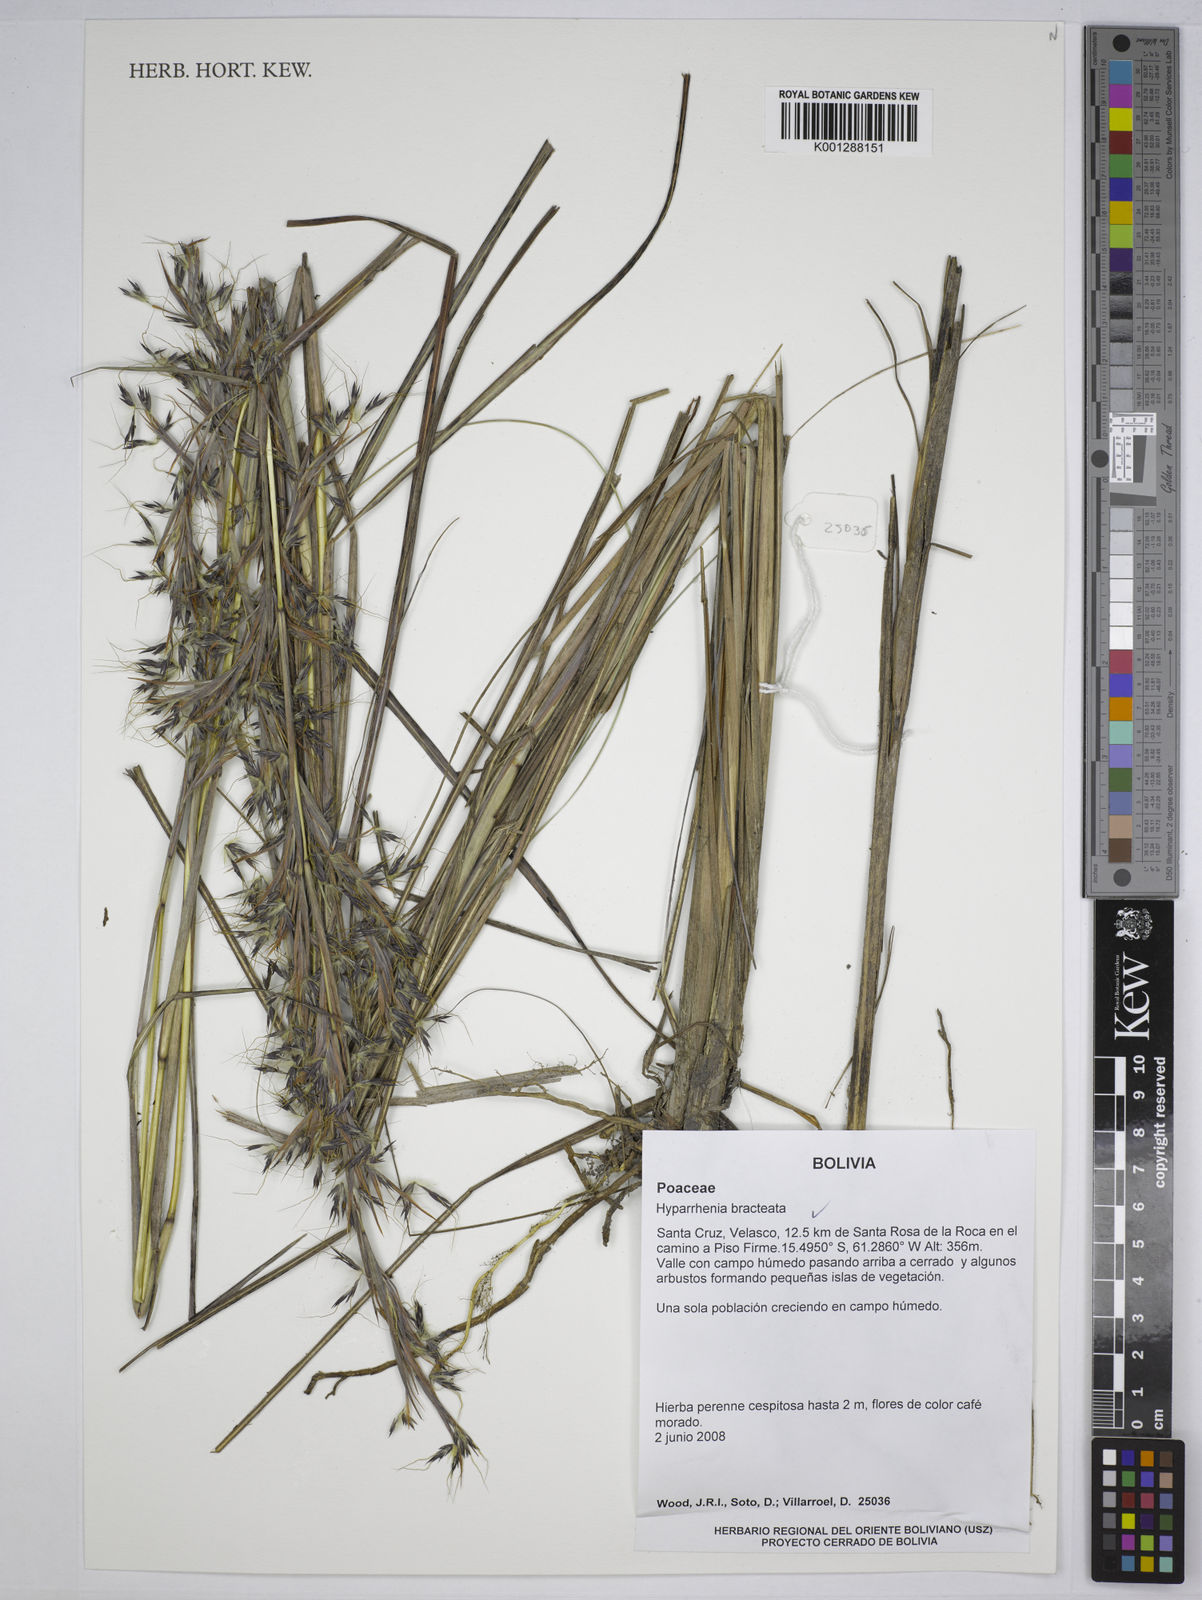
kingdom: Plantae
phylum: Tracheophyta
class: Liliopsida
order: Poales
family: Poaceae
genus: Hyparrhenia
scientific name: Hyparrhenia bracteata
